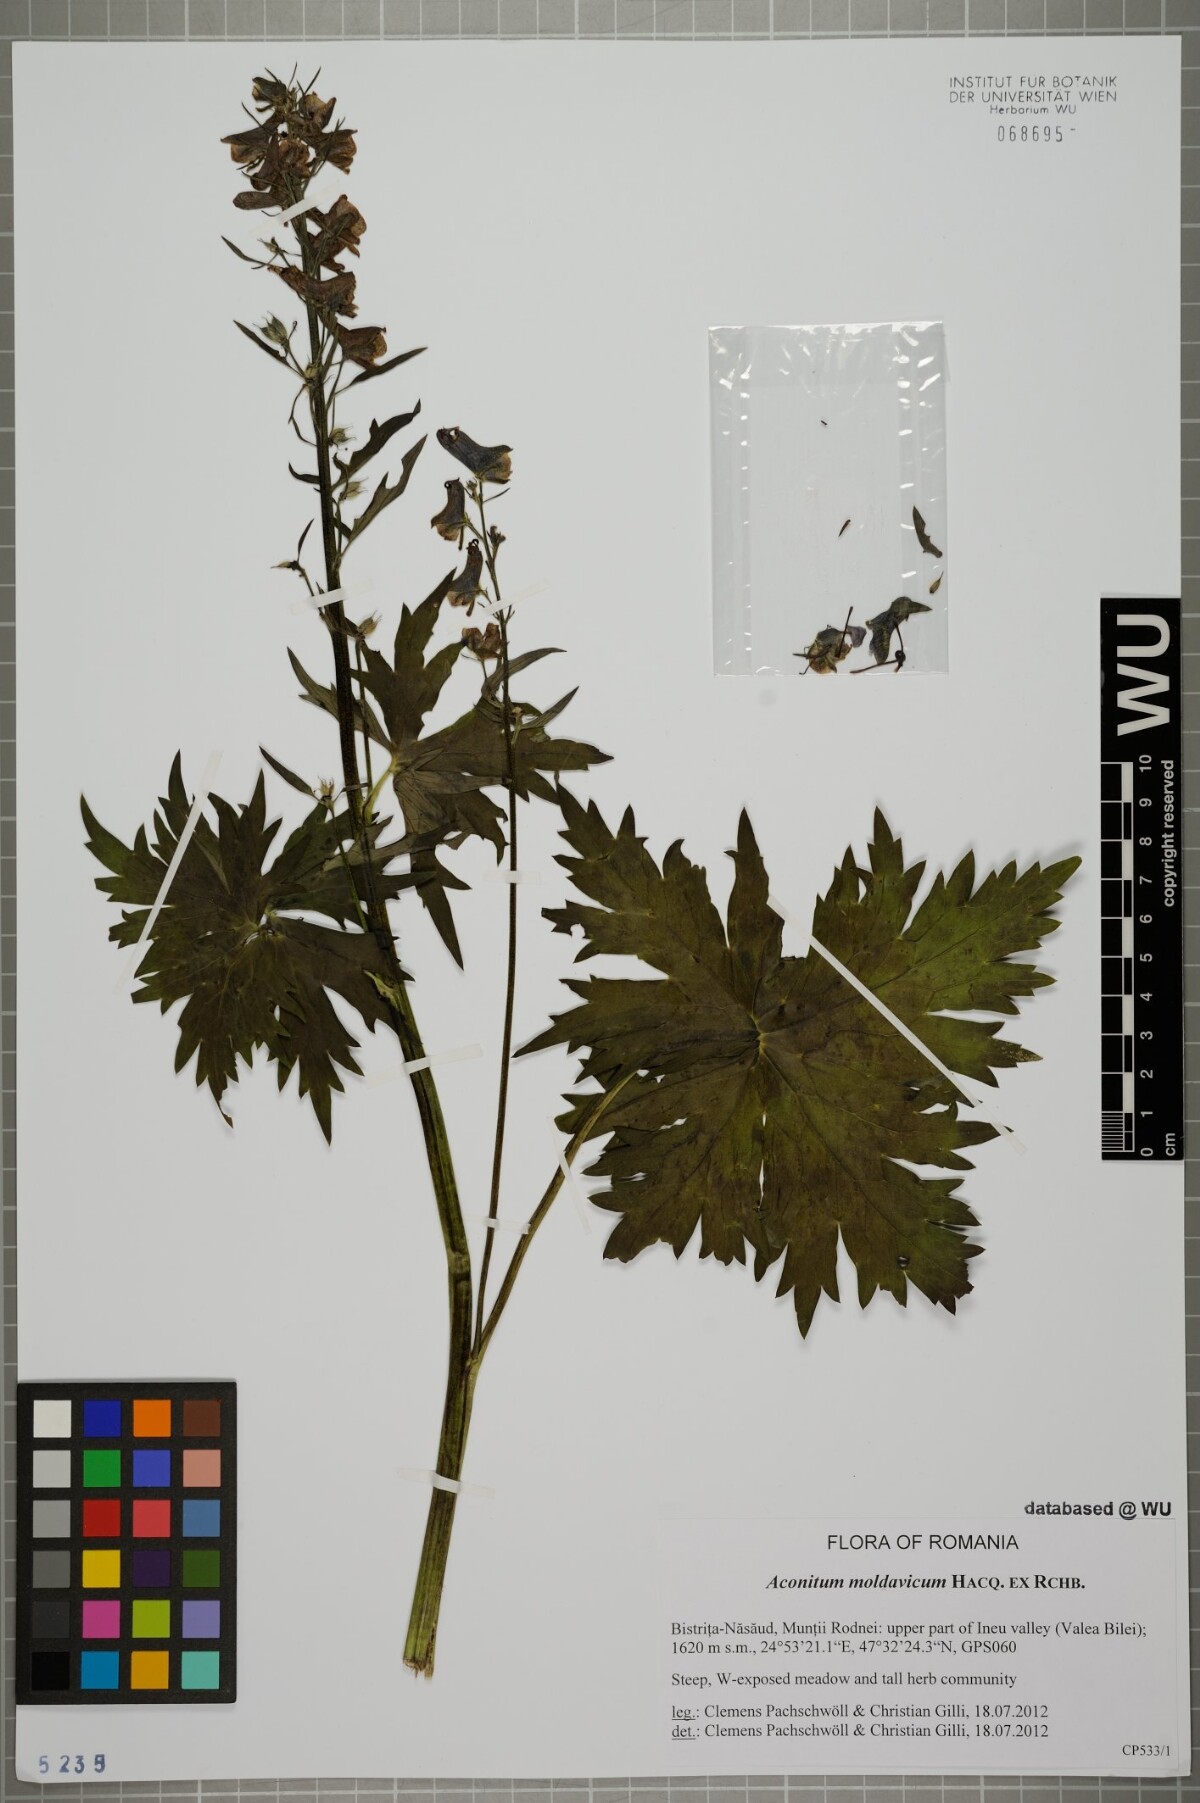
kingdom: Plantae
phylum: Tracheophyta
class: Magnoliopsida
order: Ranunculales
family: Ranunculaceae
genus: Aconitum
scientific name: Aconitum lycoctonum
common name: Wolf's-bane
